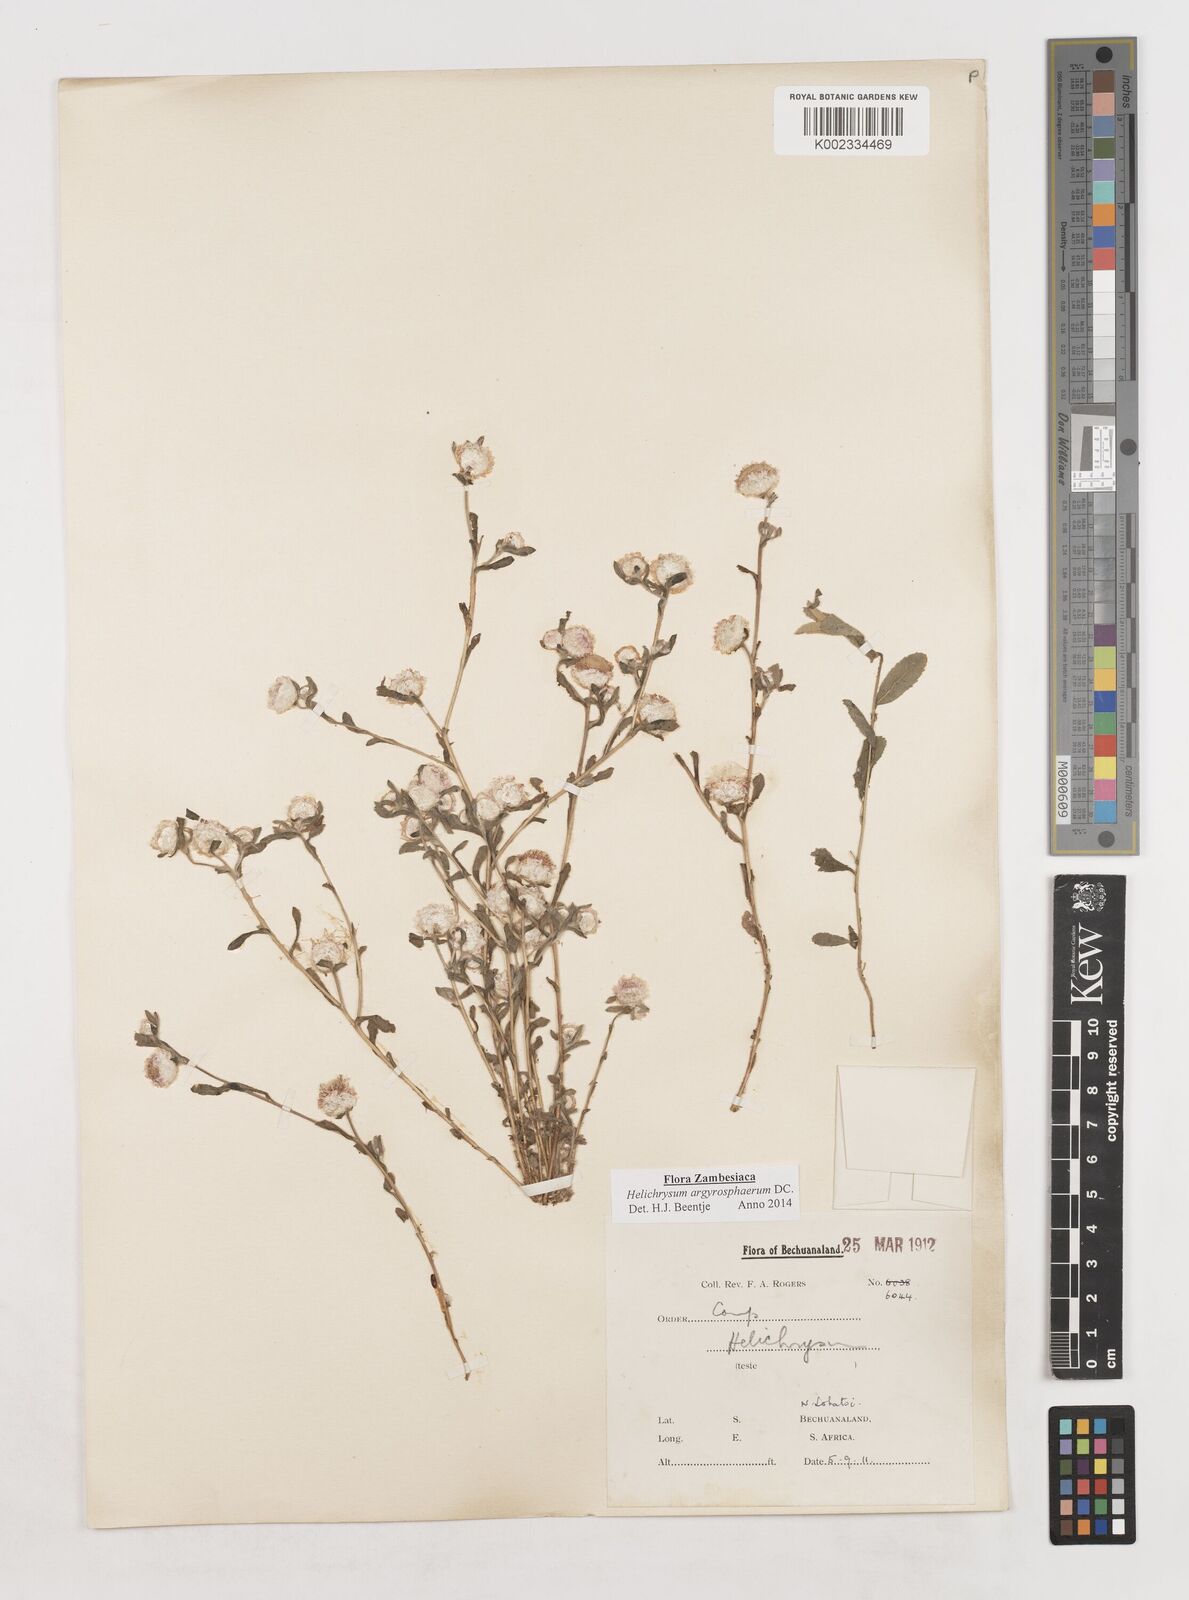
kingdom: Plantae
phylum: Tracheophyta
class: Magnoliopsida
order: Asterales
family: Asteraceae
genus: Helichrysum
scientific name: Helichrysum argyrosphaerum
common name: Wild everlasting
